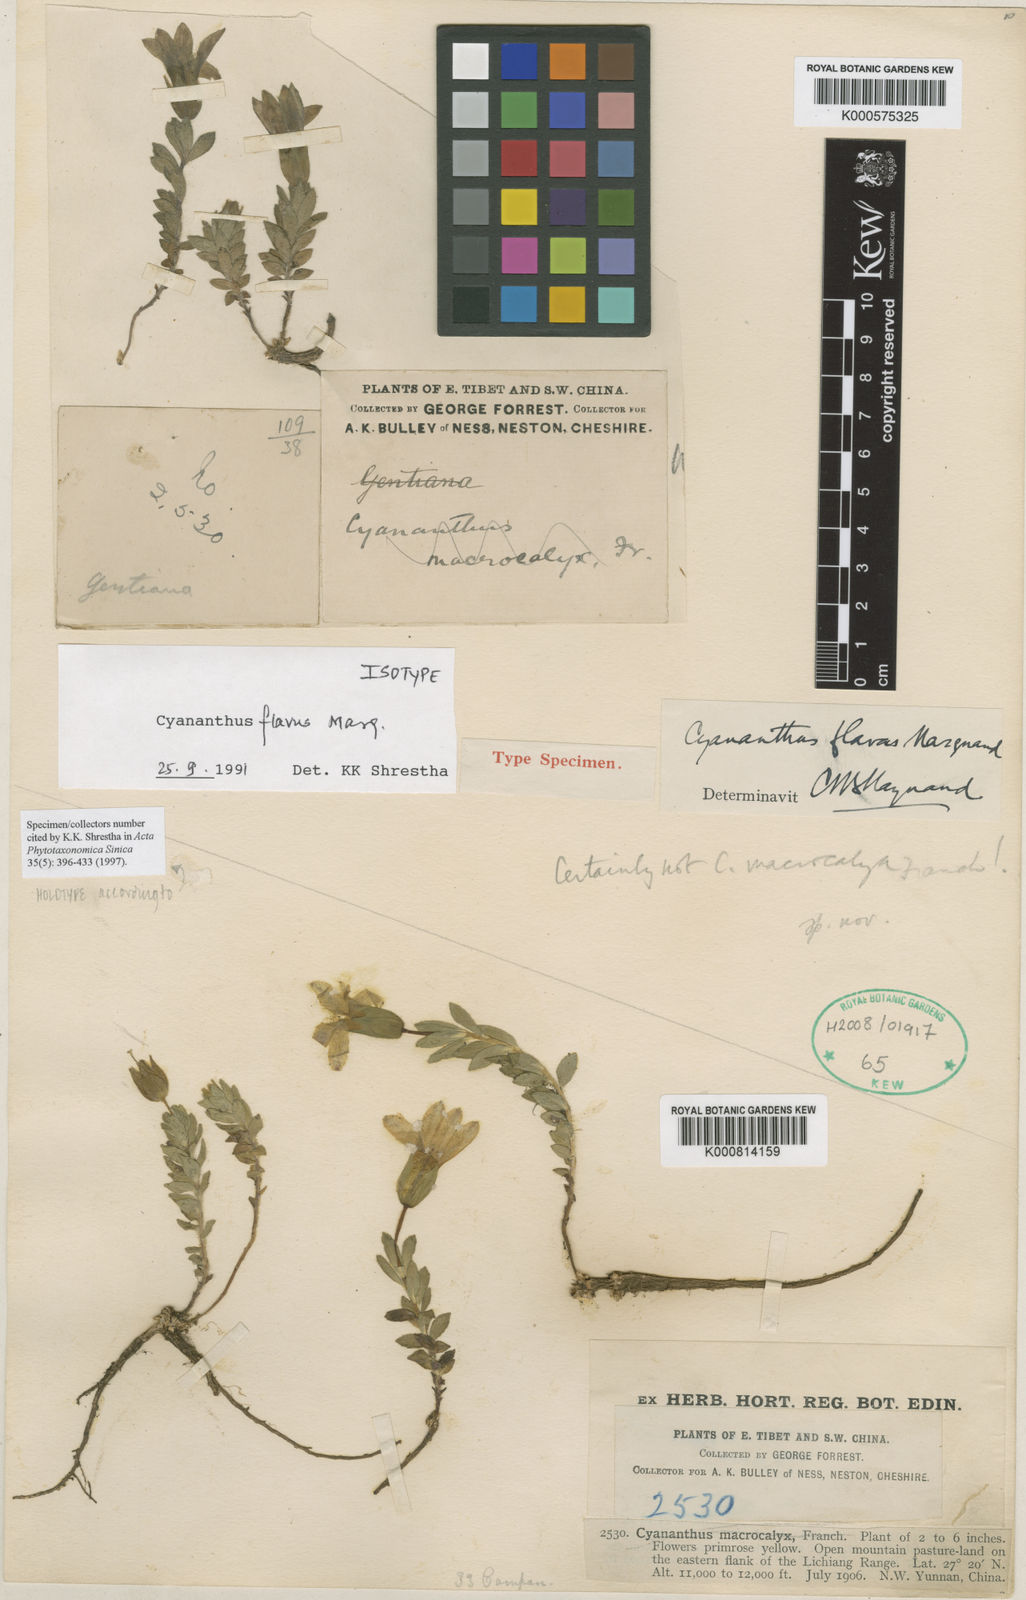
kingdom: Plantae
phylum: Tracheophyta
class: Magnoliopsida
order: Asterales
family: Campanulaceae
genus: Cyananthus
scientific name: Cyananthus flavus
